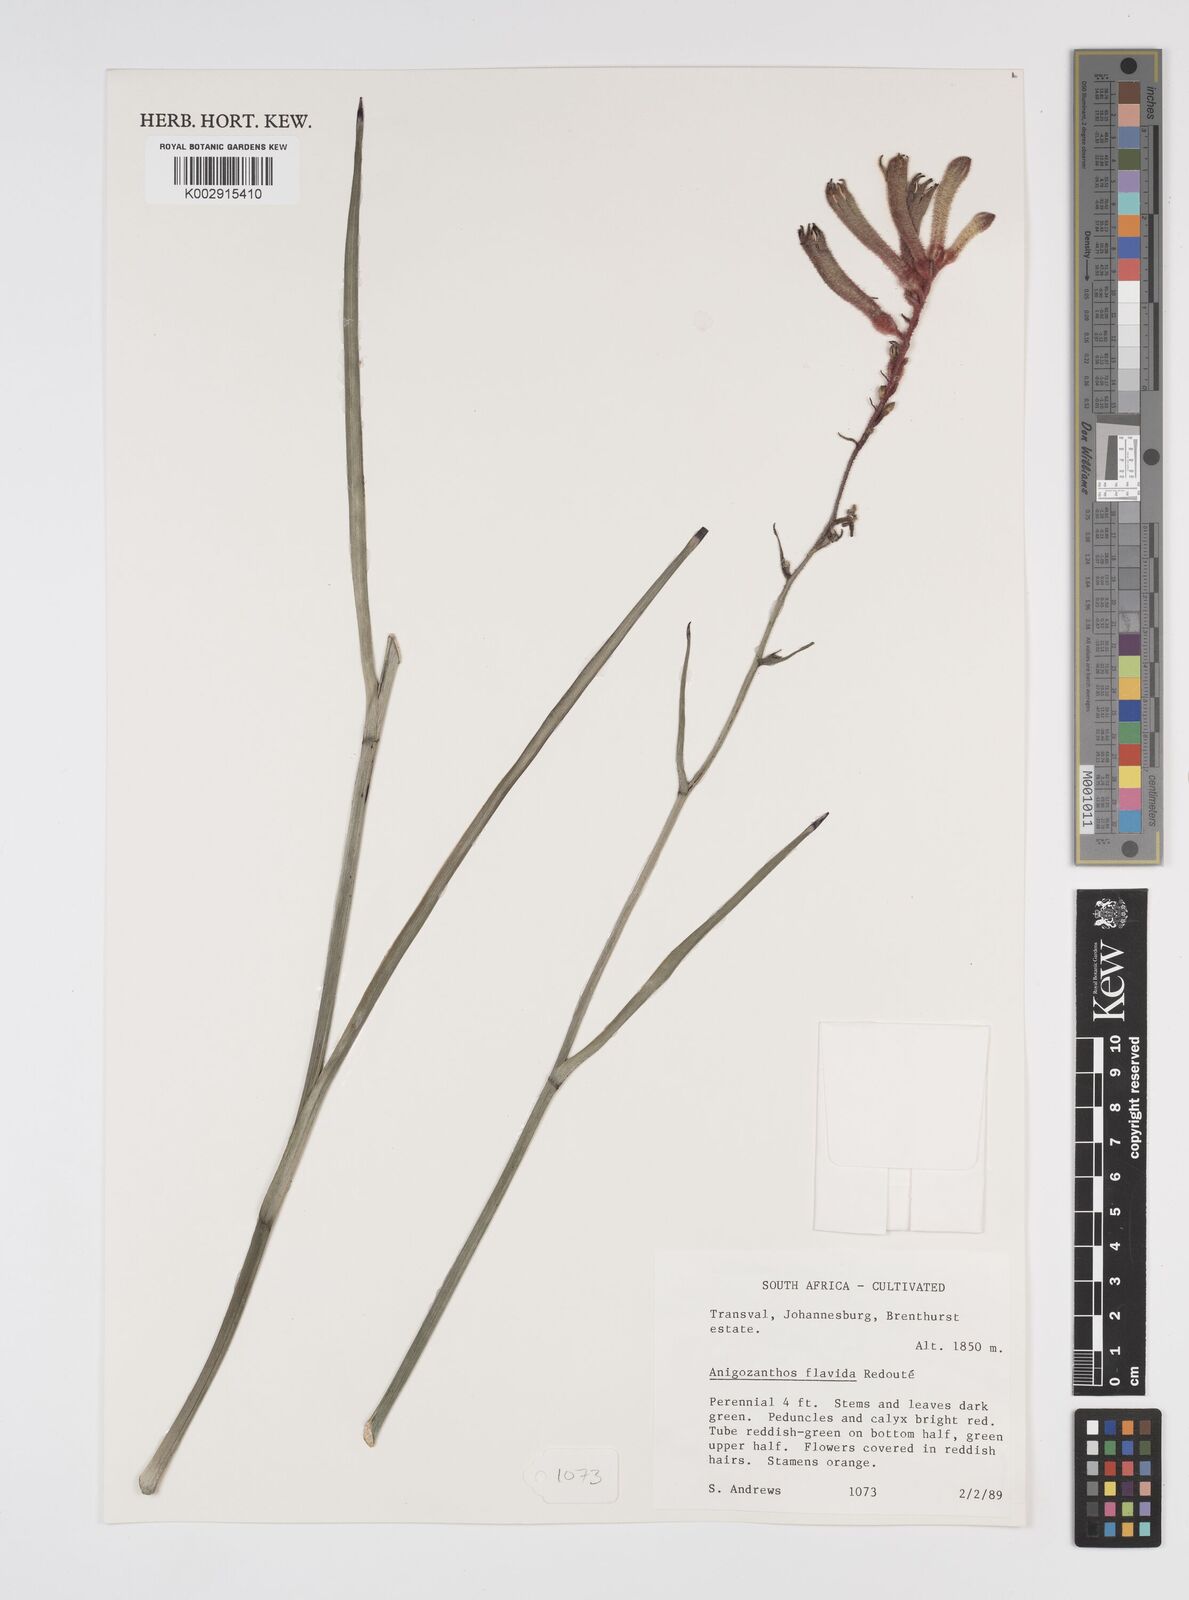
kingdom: Plantae
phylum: Tracheophyta
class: Liliopsida
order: Commelinales
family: Haemodoraceae
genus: Anigozanthos
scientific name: Anigozanthos flavidus
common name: Evergreen kangaroo-paw
